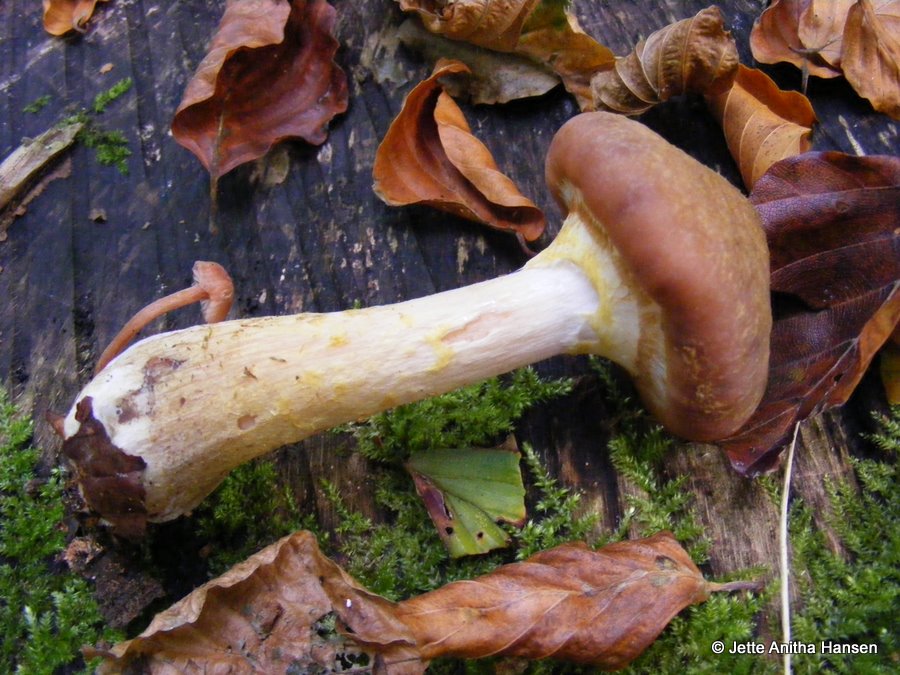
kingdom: Fungi
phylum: Basidiomycota
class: Agaricomycetes
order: Agaricales
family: Physalacriaceae
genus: Armillaria
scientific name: Armillaria lutea
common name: køllestokket honningsvamp
